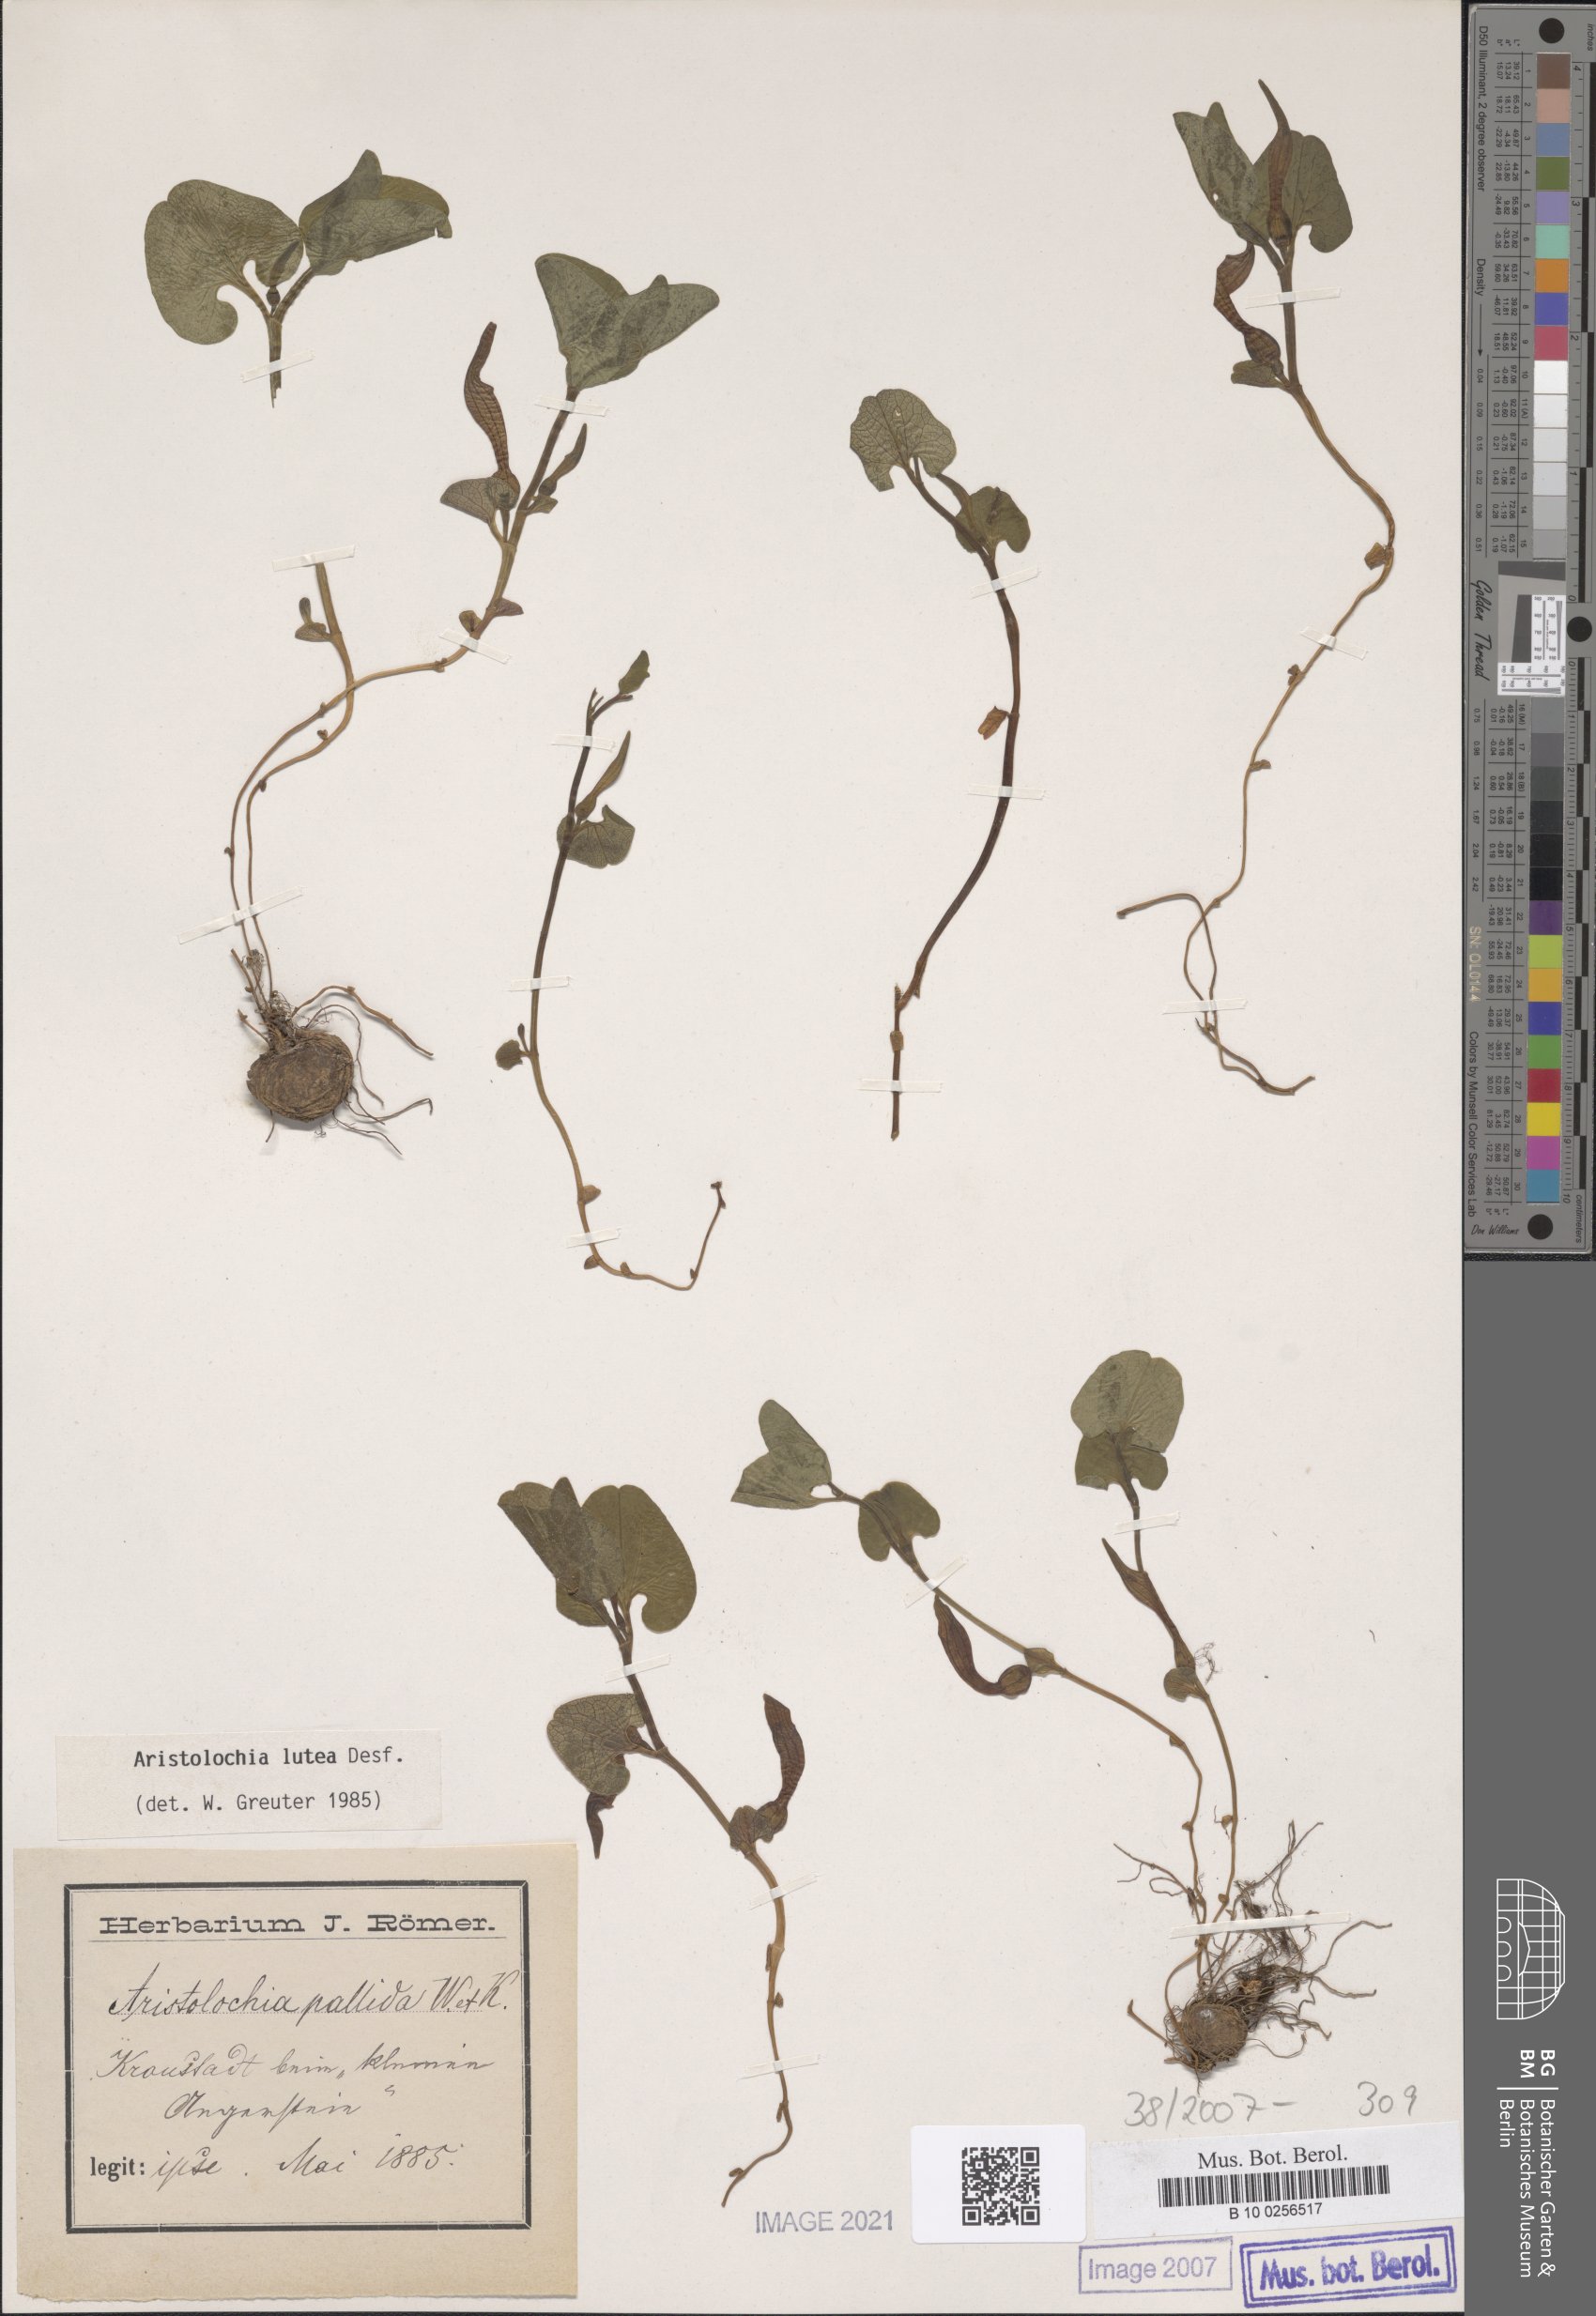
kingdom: Plantae
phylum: Tracheophyta
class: Magnoliopsida
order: Piperales
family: Aristolochiaceae
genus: Aristolochia
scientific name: Aristolochia lutea
